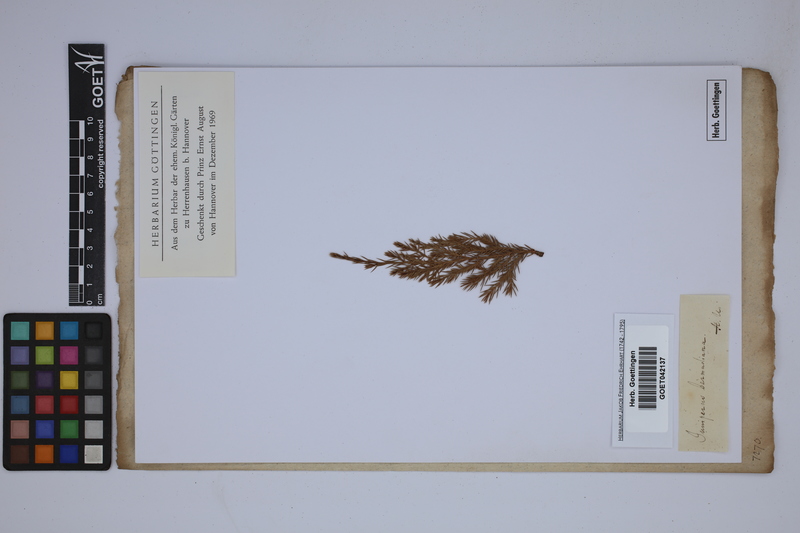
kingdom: Plantae
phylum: Tracheophyta
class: Pinopsida
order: Pinales
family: Cupressaceae
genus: Juniperus
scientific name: Juniperus bermudiana
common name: Bermuda juniper
